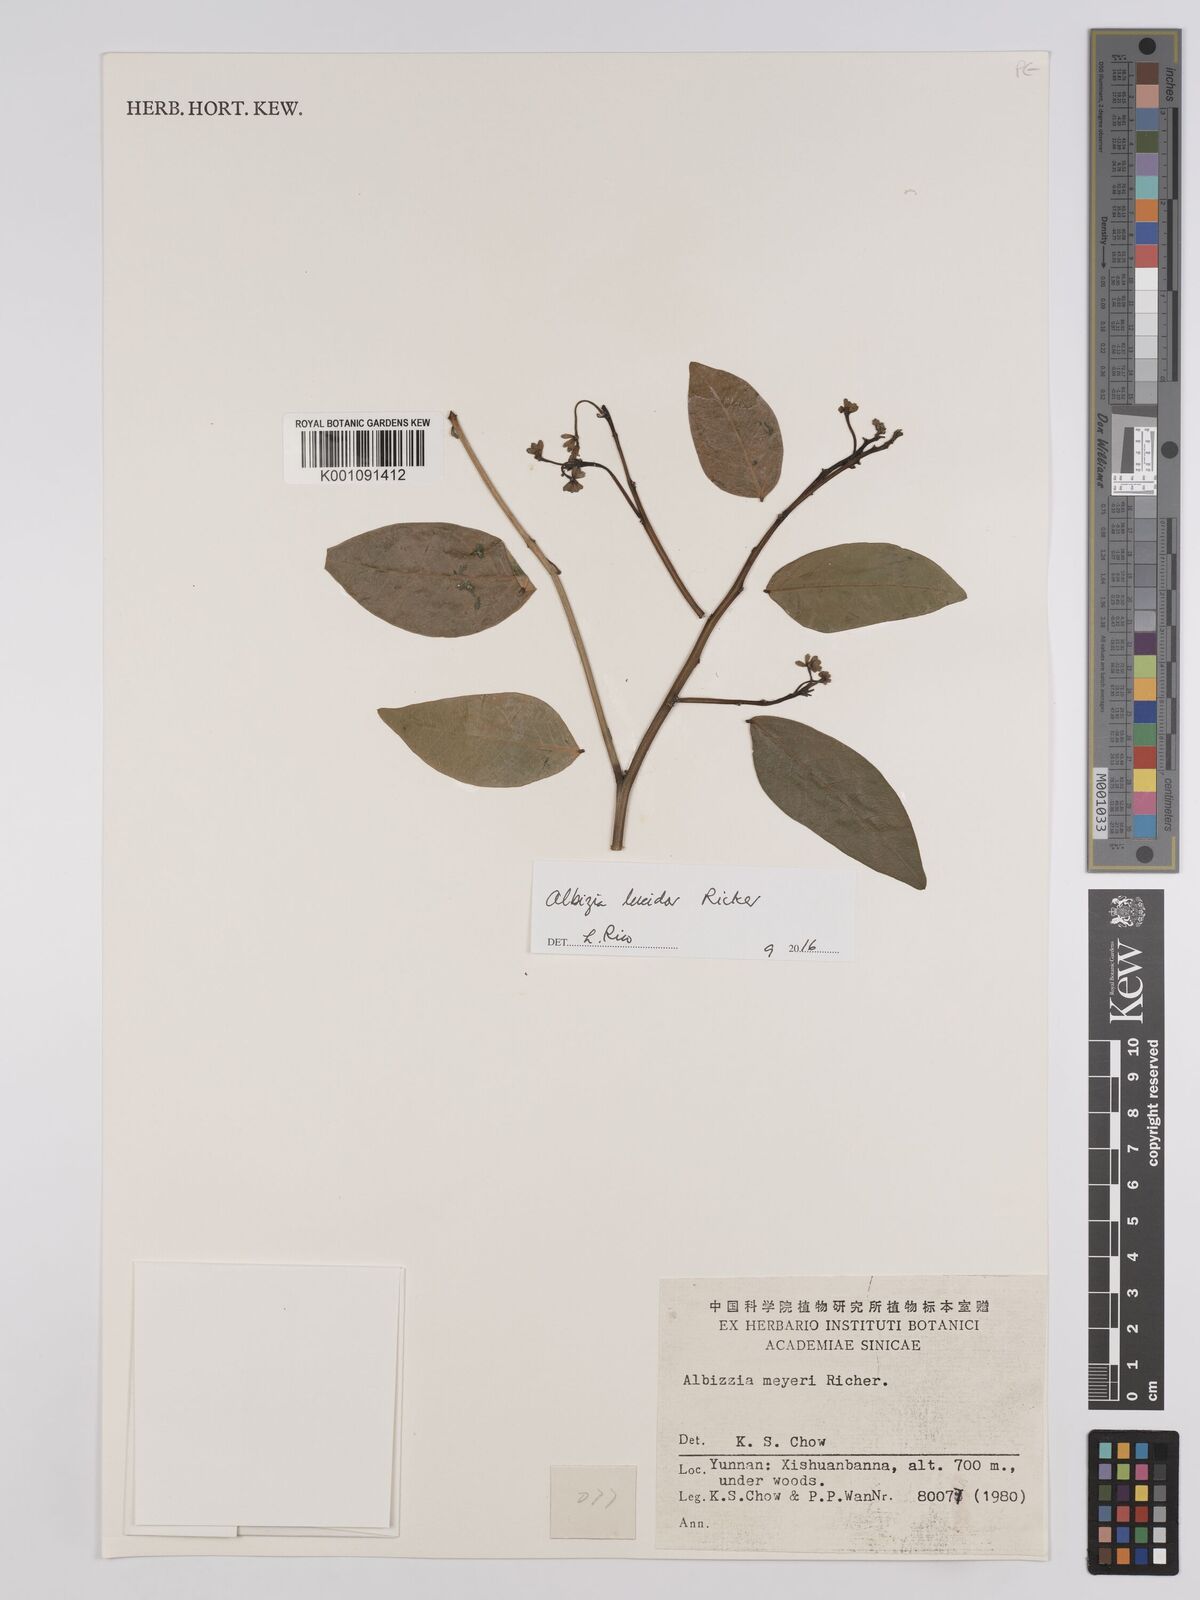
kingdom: Plantae
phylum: Tracheophyta
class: Magnoliopsida
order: Fabales
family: Fabaceae
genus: Albizia
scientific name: Albizia
